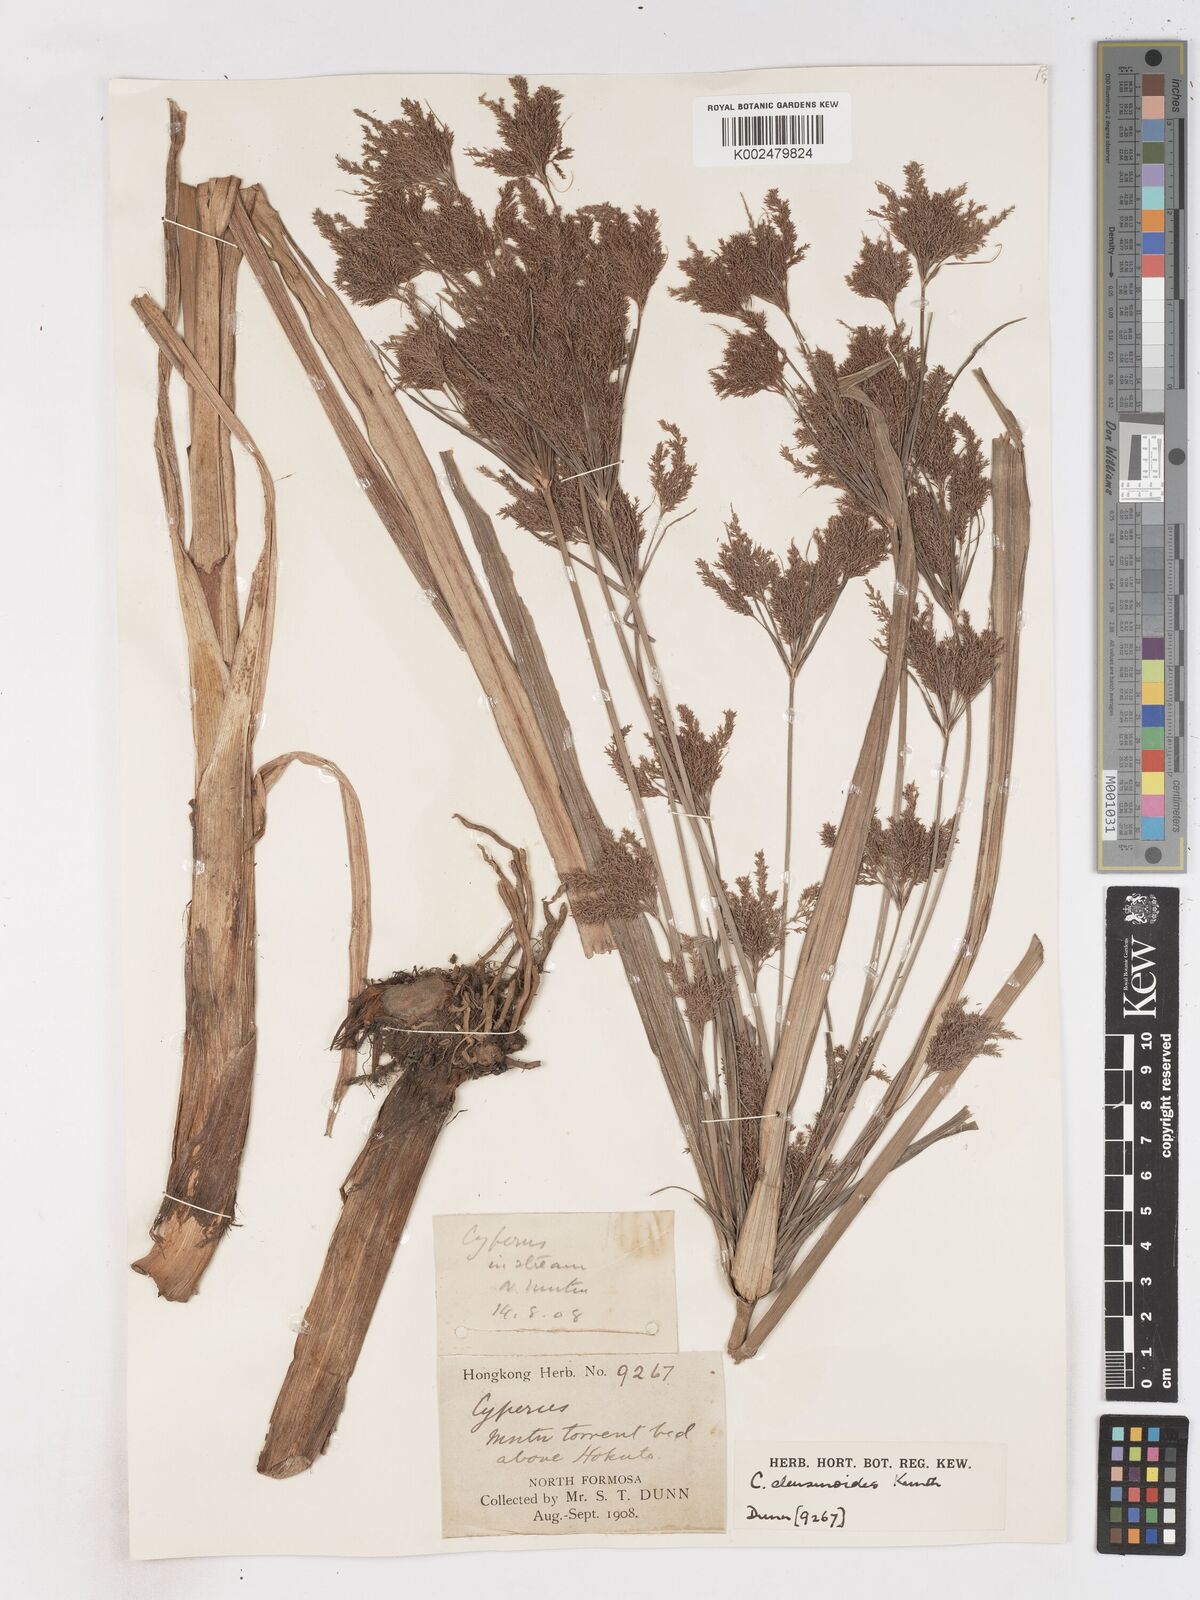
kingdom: Plantae
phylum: Tracheophyta
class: Liliopsida
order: Poales
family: Cyperaceae
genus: Cyperus
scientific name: Cyperus nutans
